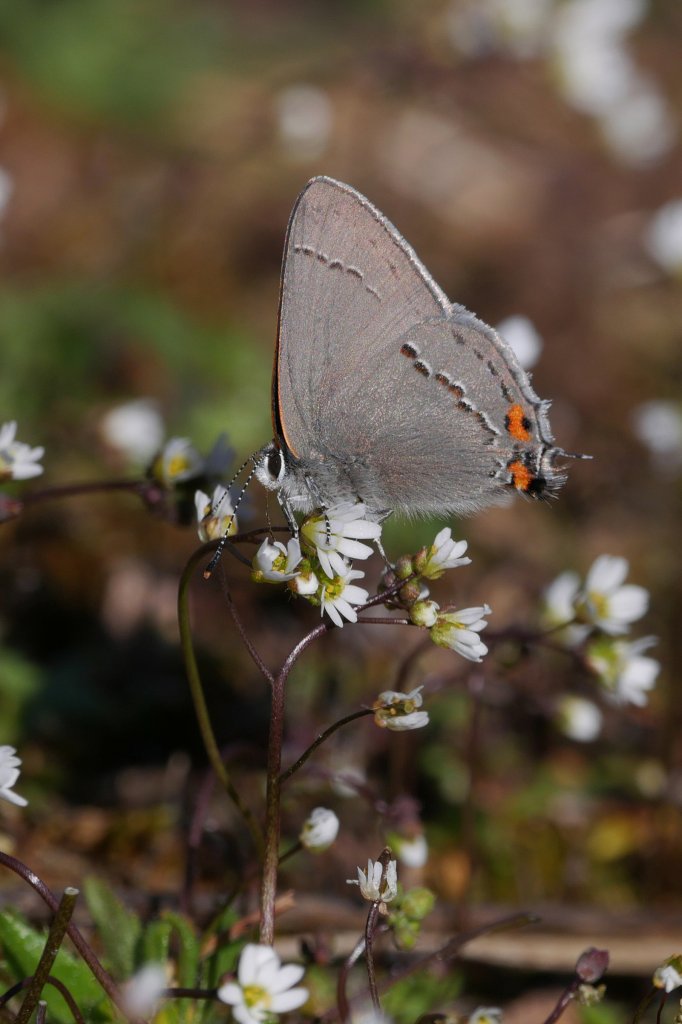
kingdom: Animalia
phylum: Arthropoda
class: Insecta
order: Lepidoptera
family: Lycaenidae
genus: Strymon
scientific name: Strymon melinus
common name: Gray Hairstreak
